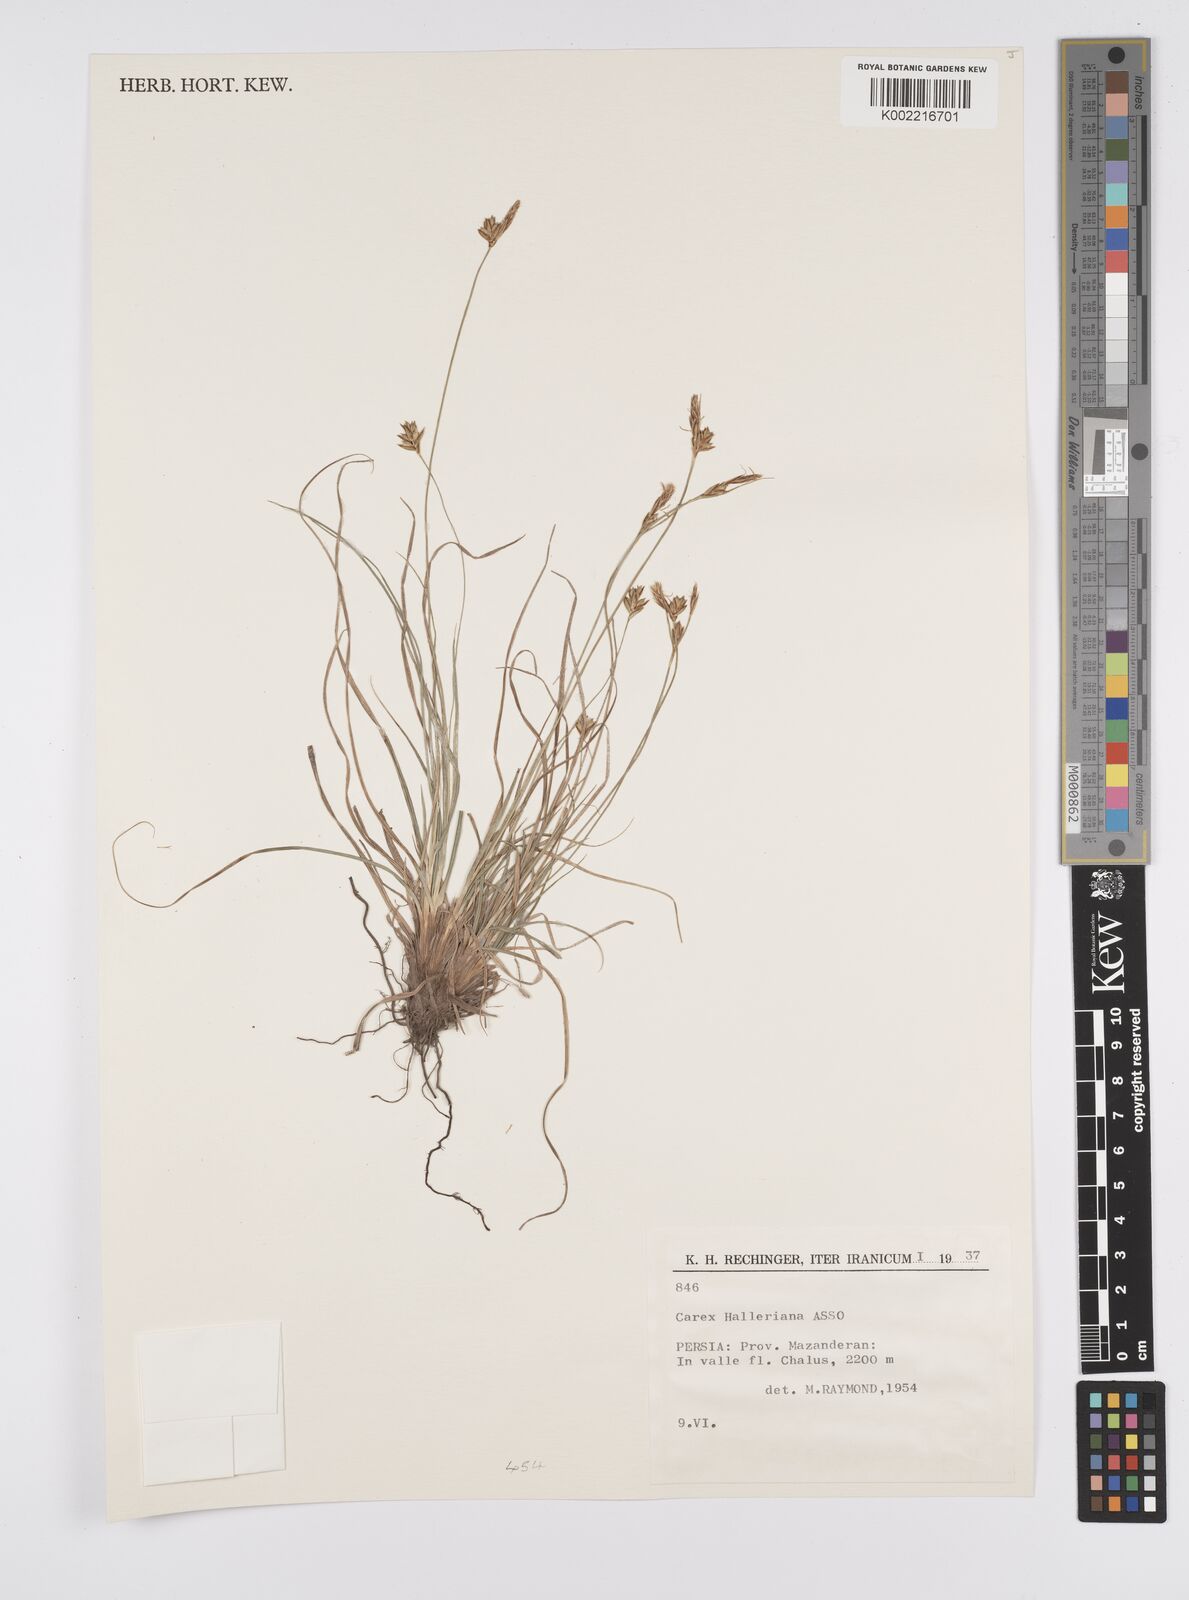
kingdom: Plantae
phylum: Tracheophyta
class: Liliopsida
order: Poales
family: Cyperaceae
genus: Carex
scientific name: Carex halleriana
